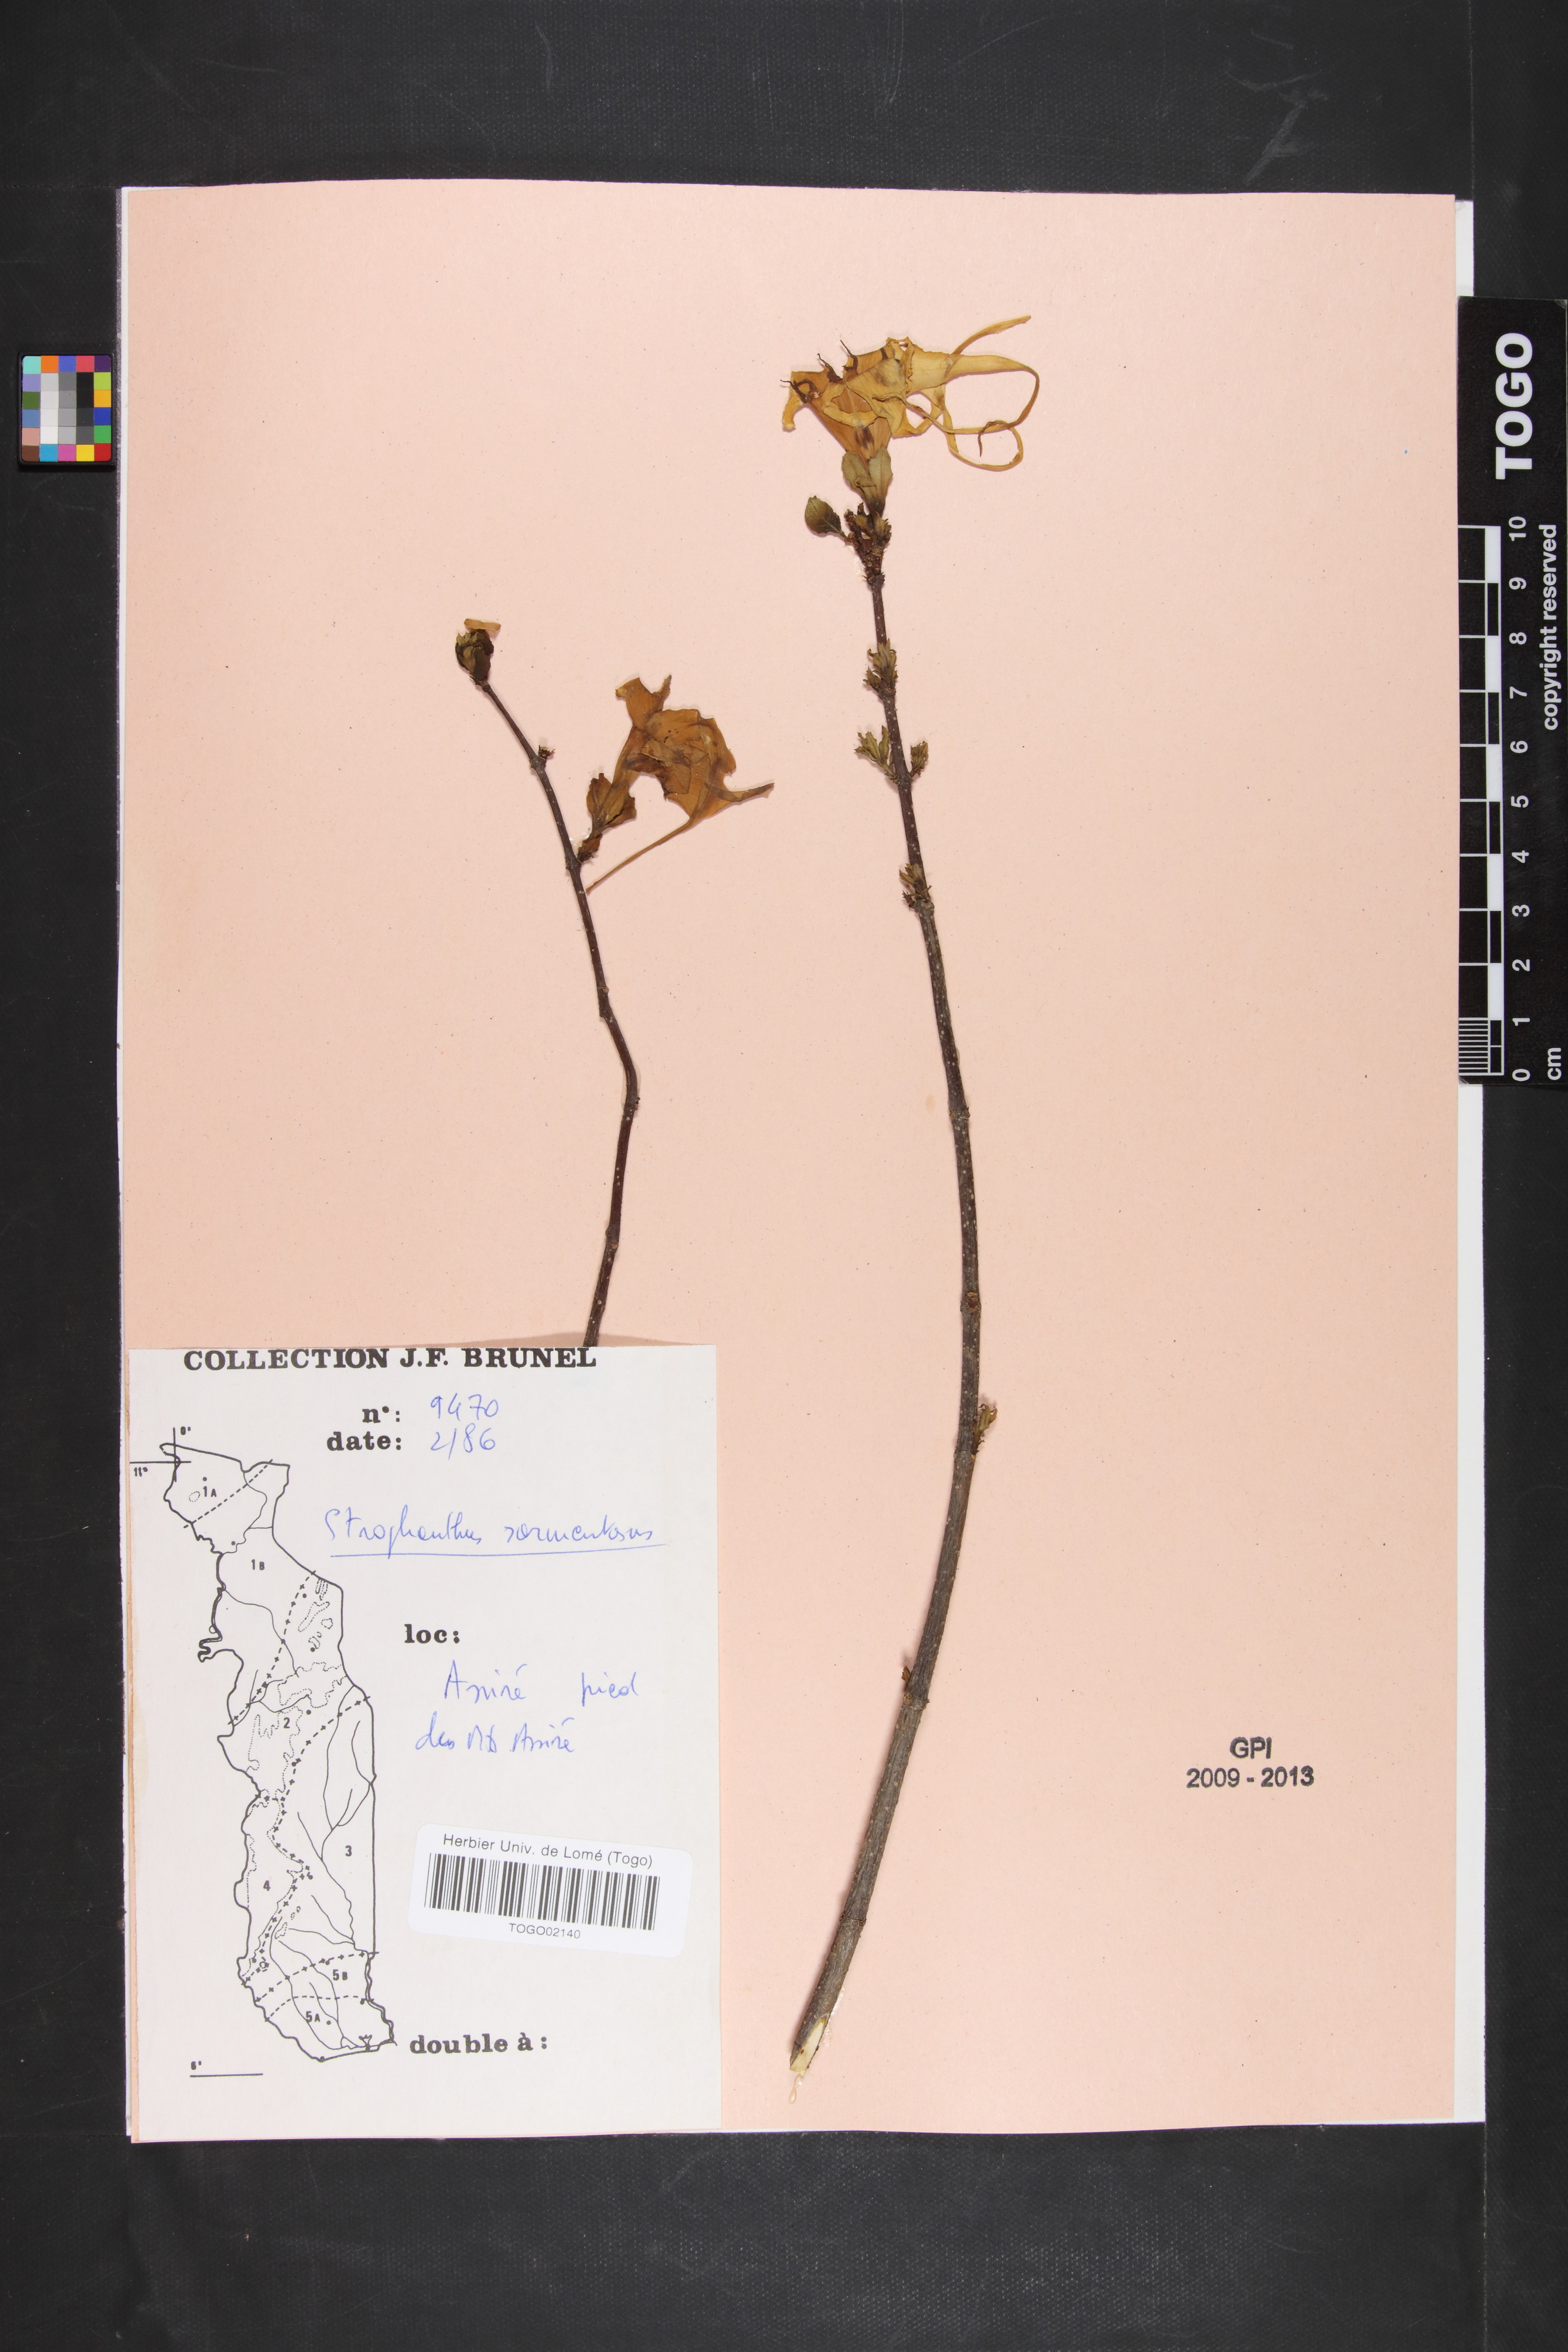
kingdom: Plantae
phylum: Tracheophyta
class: Magnoliopsida
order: Gentianales
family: Apocynaceae
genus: Strophanthus
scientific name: Strophanthus sarmentosus
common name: Poison arrowvine
